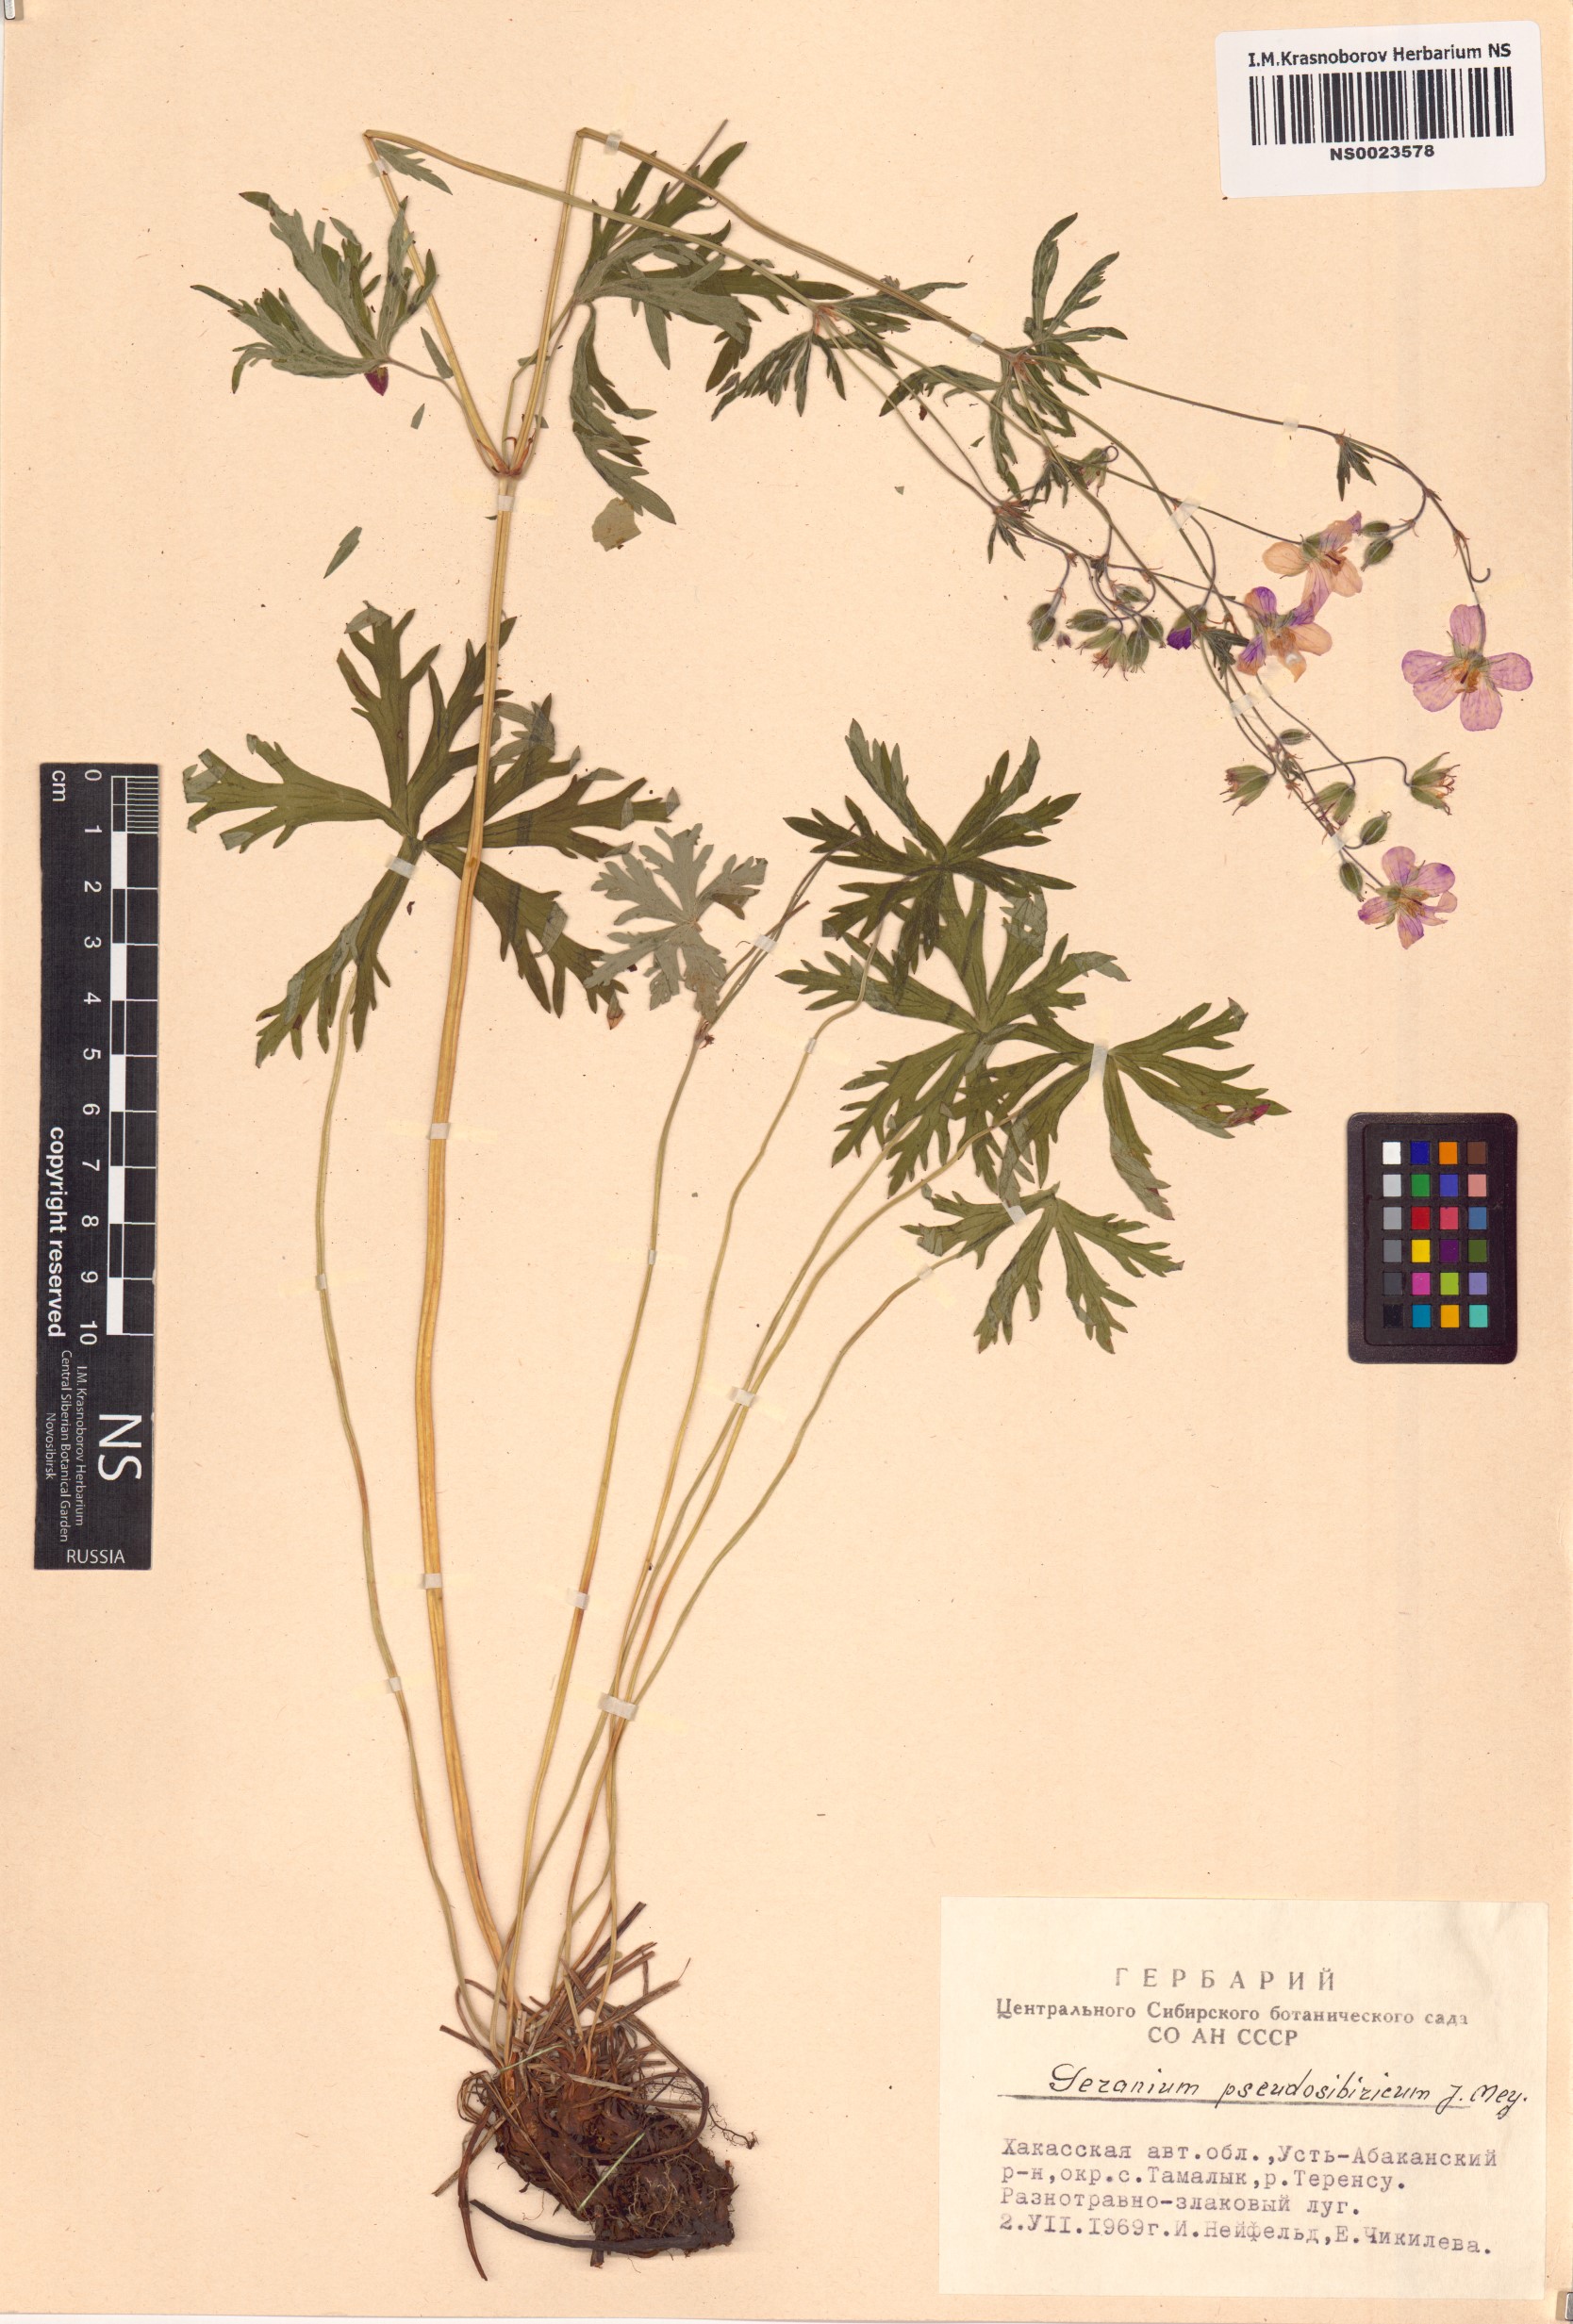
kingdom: Plantae
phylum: Tracheophyta
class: Magnoliopsida
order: Geraniales
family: Geraniaceae
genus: Geranium
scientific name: Geranium pseudosibiricum
